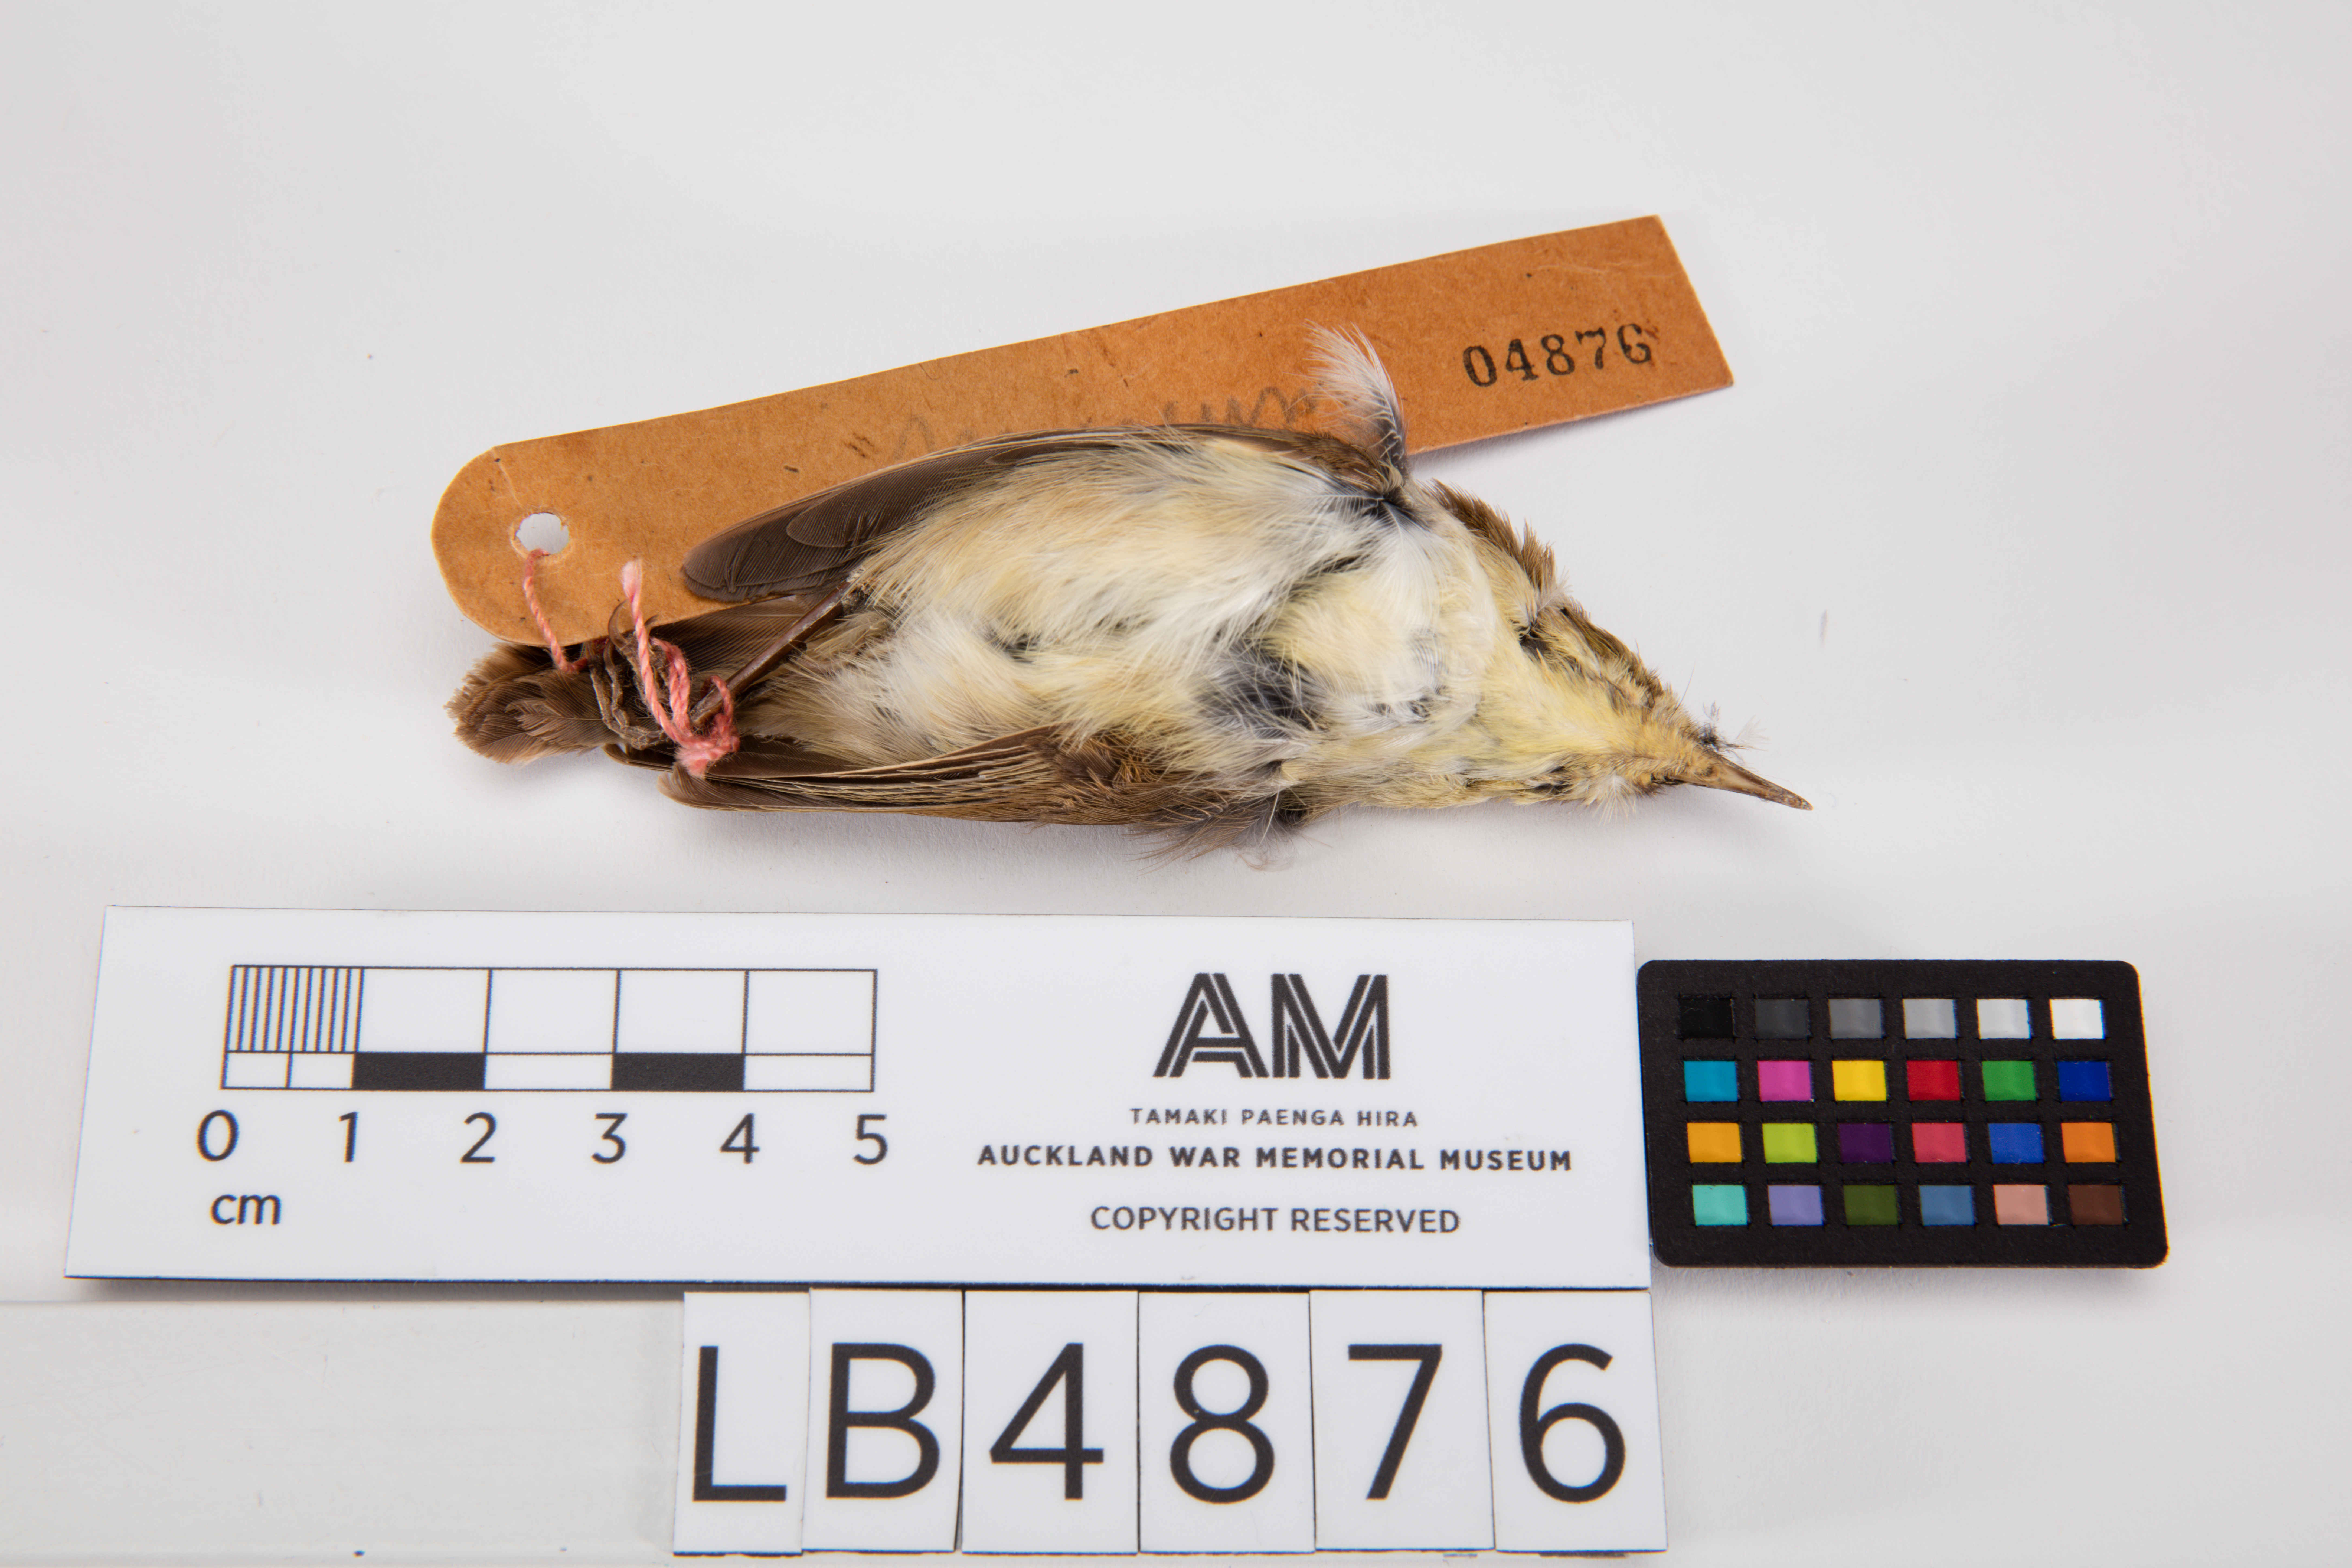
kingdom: Animalia
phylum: Chordata
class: Aves
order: Passeriformes
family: Acanthizidae
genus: Gerygone
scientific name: Gerygone albofrontata
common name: Chatham gerygone
